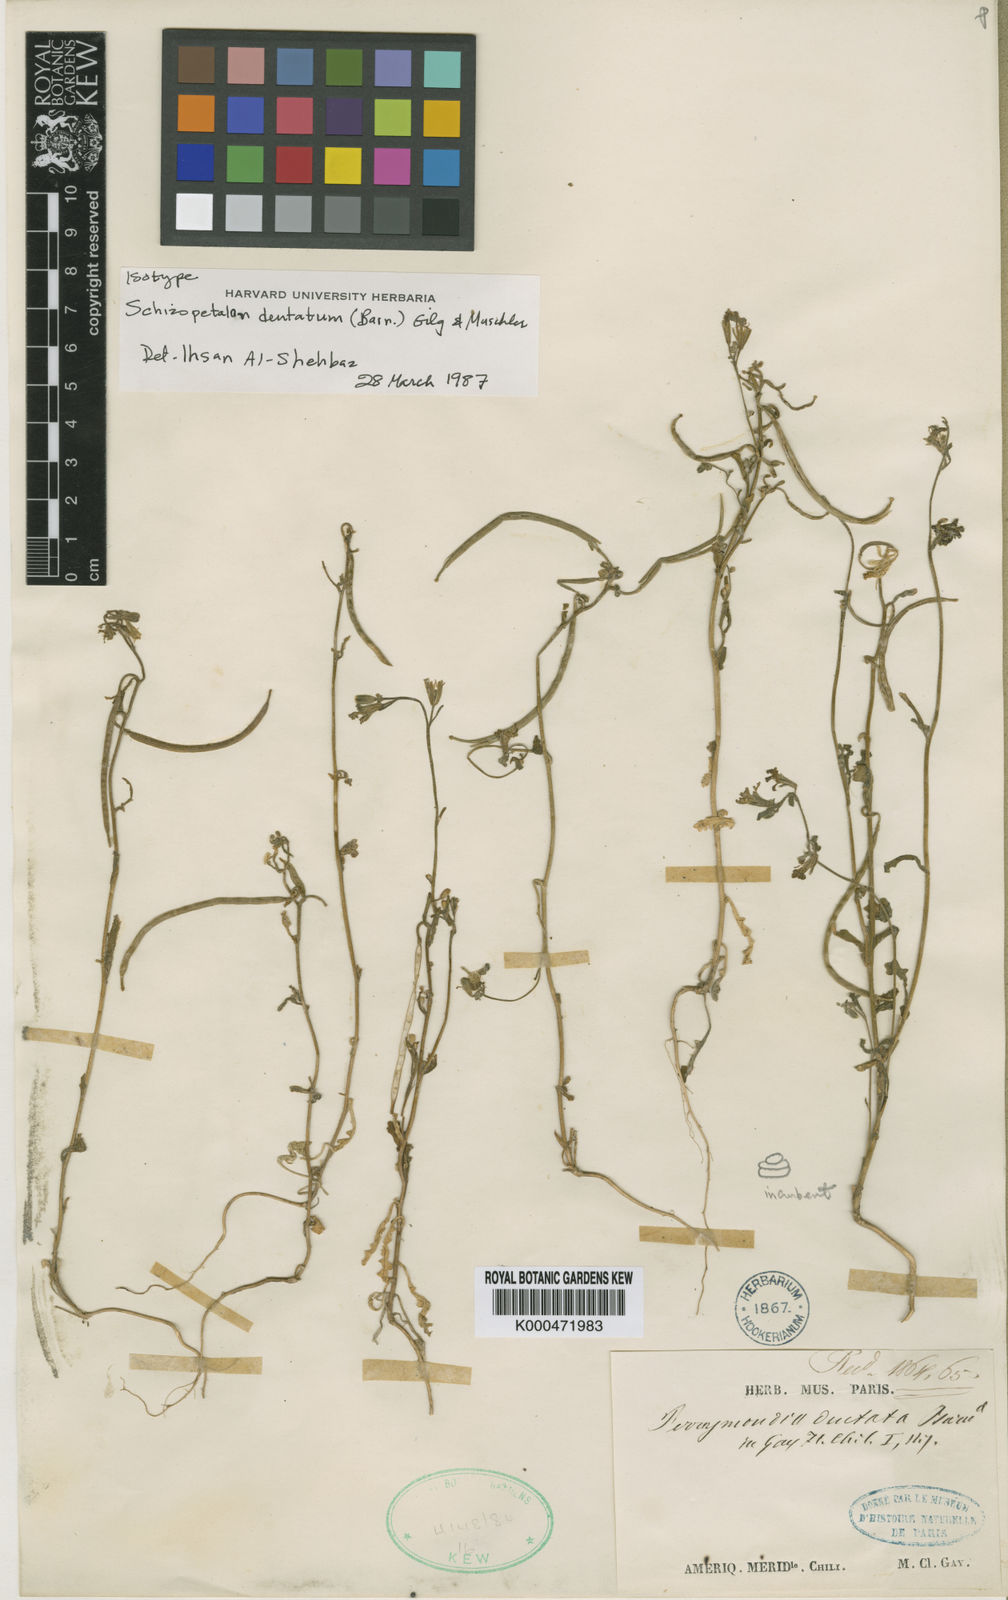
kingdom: Plantae
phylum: Tracheophyta
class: Magnoliopsida
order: Brassicales
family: Brassicaceae
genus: Schizopetalon
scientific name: Schizopetalon
